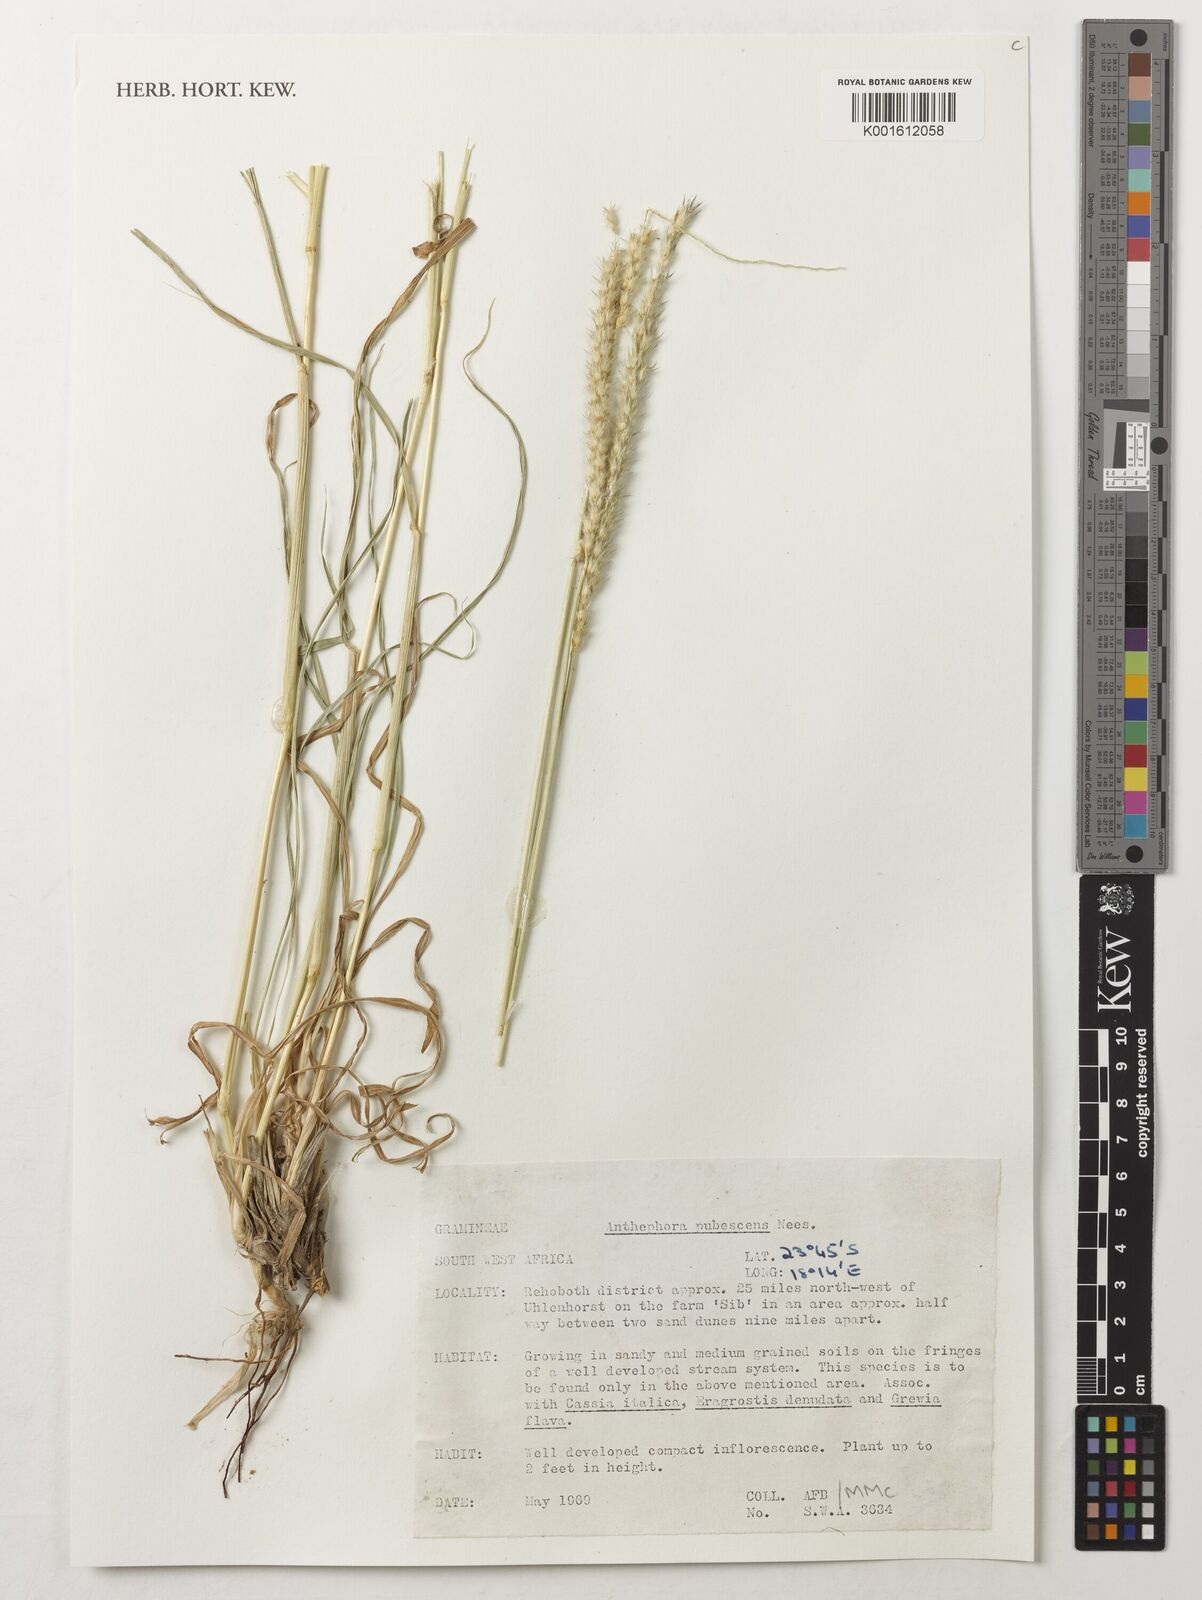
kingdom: Plantae
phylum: Tracheophyta
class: Liliopsida
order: Poales
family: Poaceae
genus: Anthephora
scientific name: Anthephora pubescens
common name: Wool grass
